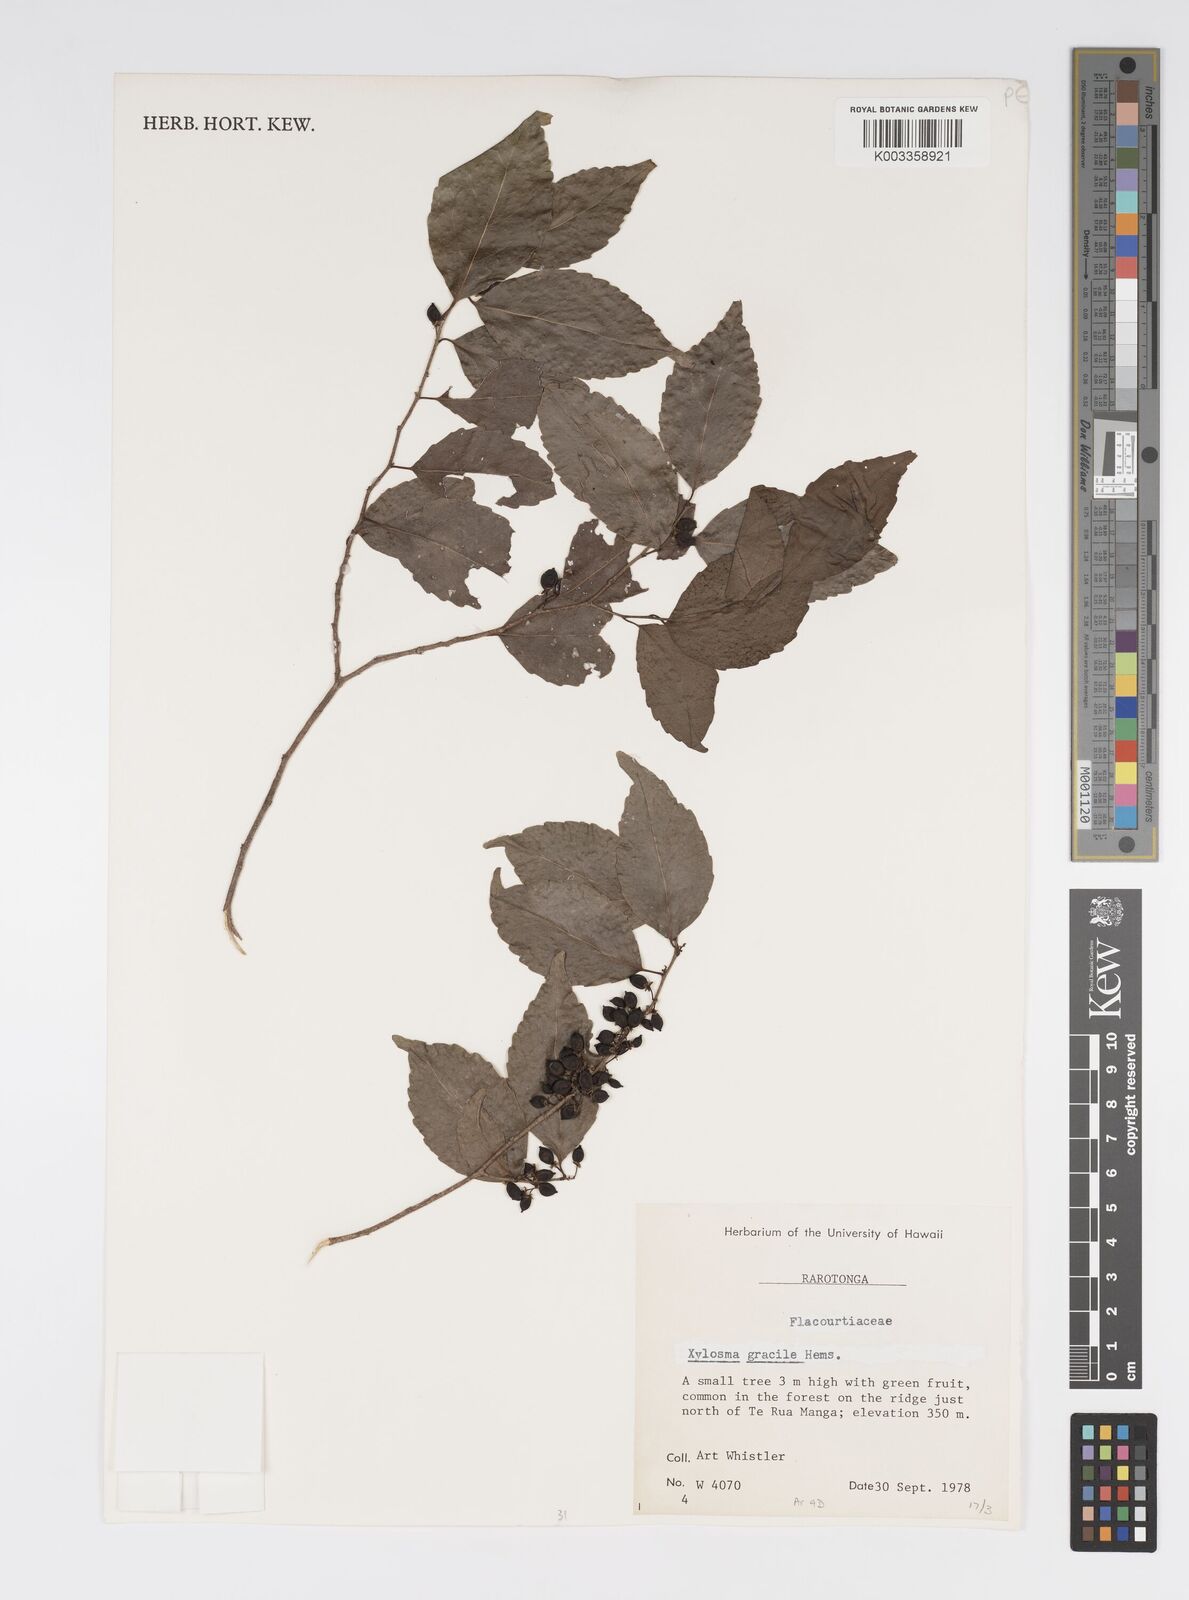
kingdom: Plantae
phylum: Tracheophyta
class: Magnoliopsida
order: Malpighiales
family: Salicaceae
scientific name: Salicaceae
